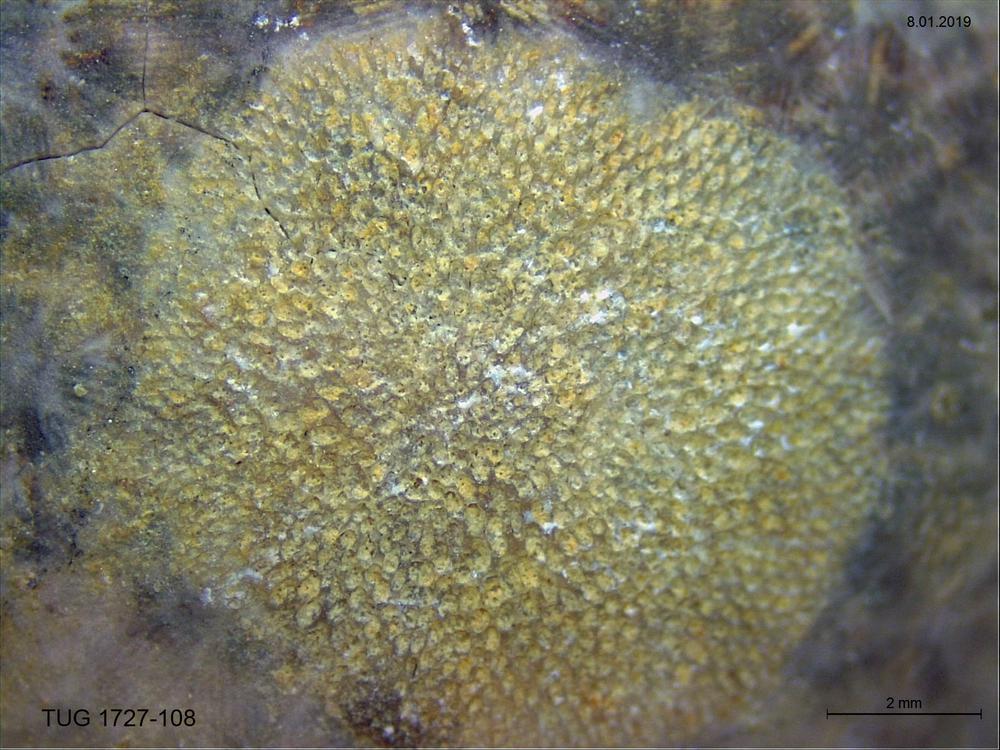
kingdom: Animalia
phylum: Bryozoa
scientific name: Bryozoa
